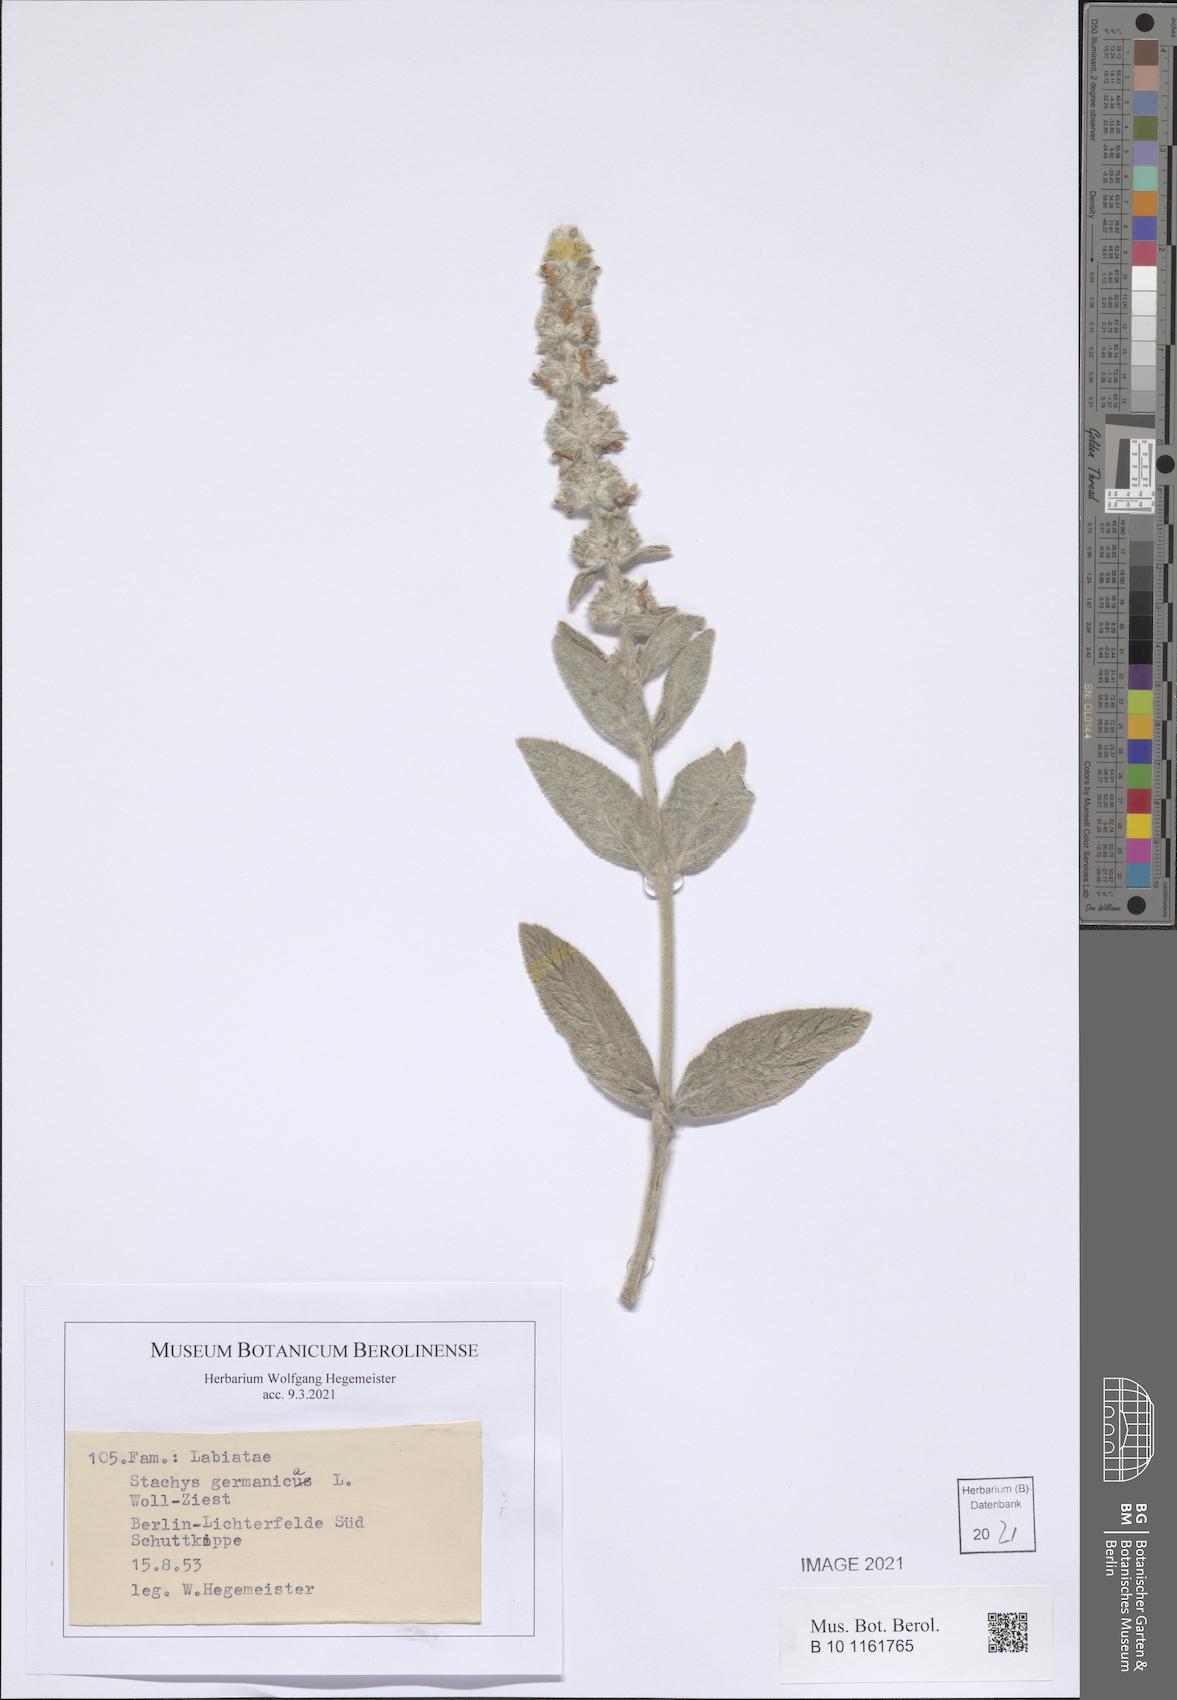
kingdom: Plantae
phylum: Tracheophyta
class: Magnoliopsida
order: Lamiales
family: Lamiaceae
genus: Stachys
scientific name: Stachys germanica
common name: Downy woundwort
